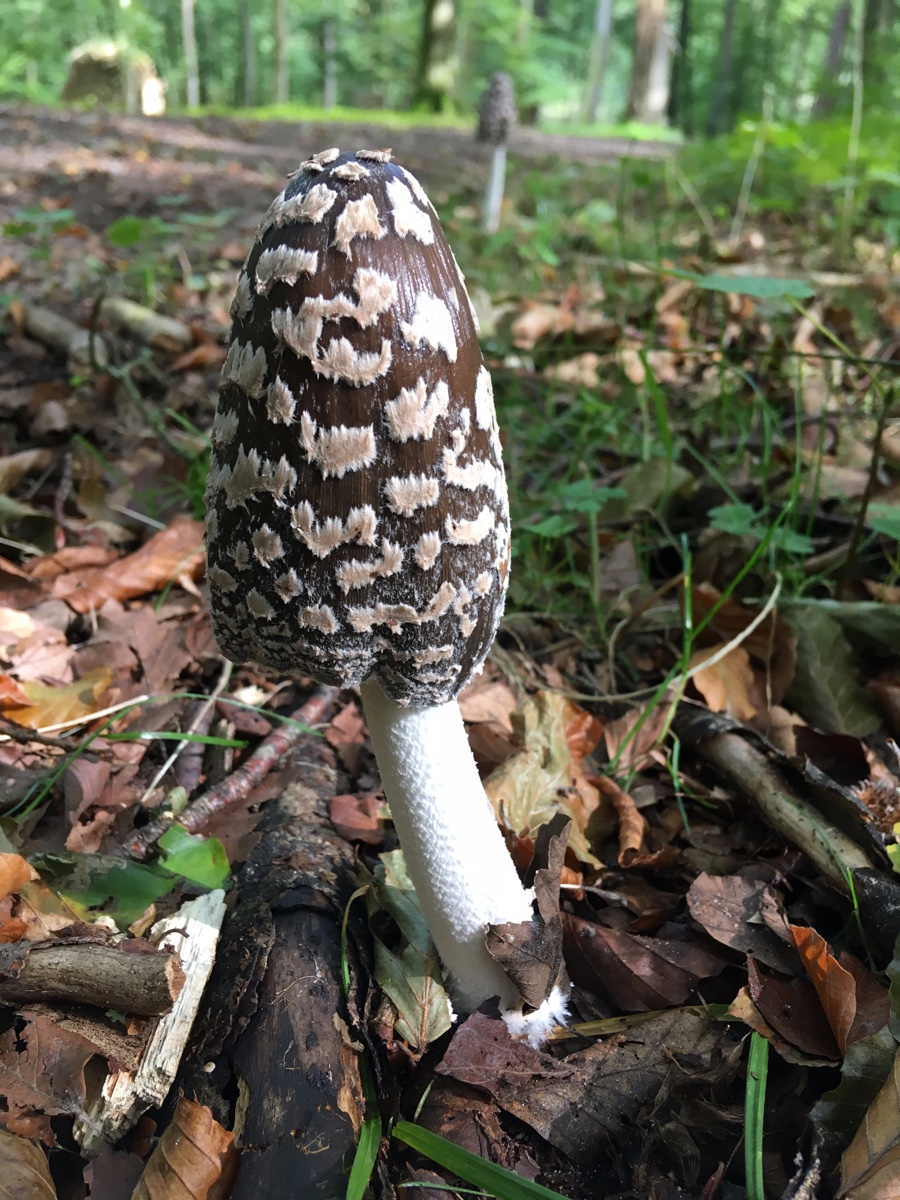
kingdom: Fungi
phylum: Basidiomycota
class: Agaricomycetes
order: Agaricales
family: Psathyrellaceae
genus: Coprinopsis
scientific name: Coprinopsis picacea
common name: skade-blækhat
